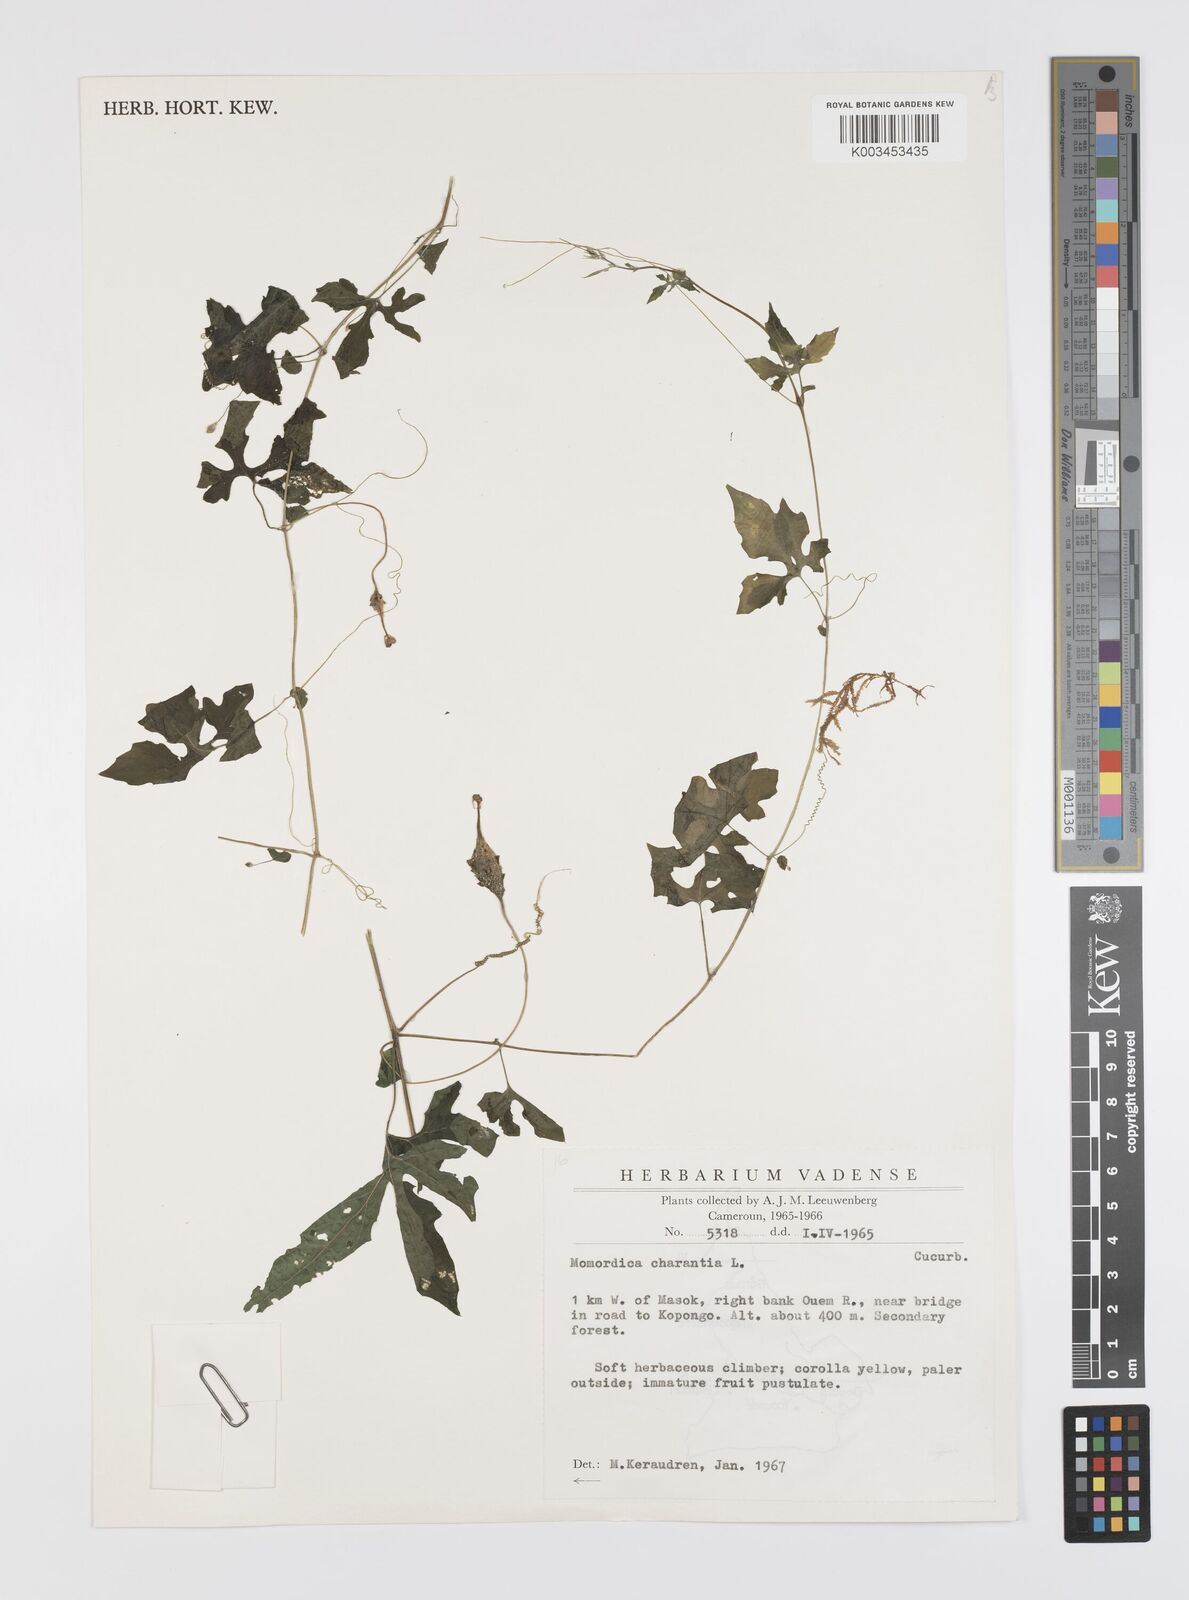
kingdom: Plantae
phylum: Tracheophyta
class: Magnoliopsida
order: Cucurbitales
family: Cucurbitaceae
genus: Momordica
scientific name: Momordica charantia
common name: Balsampear
